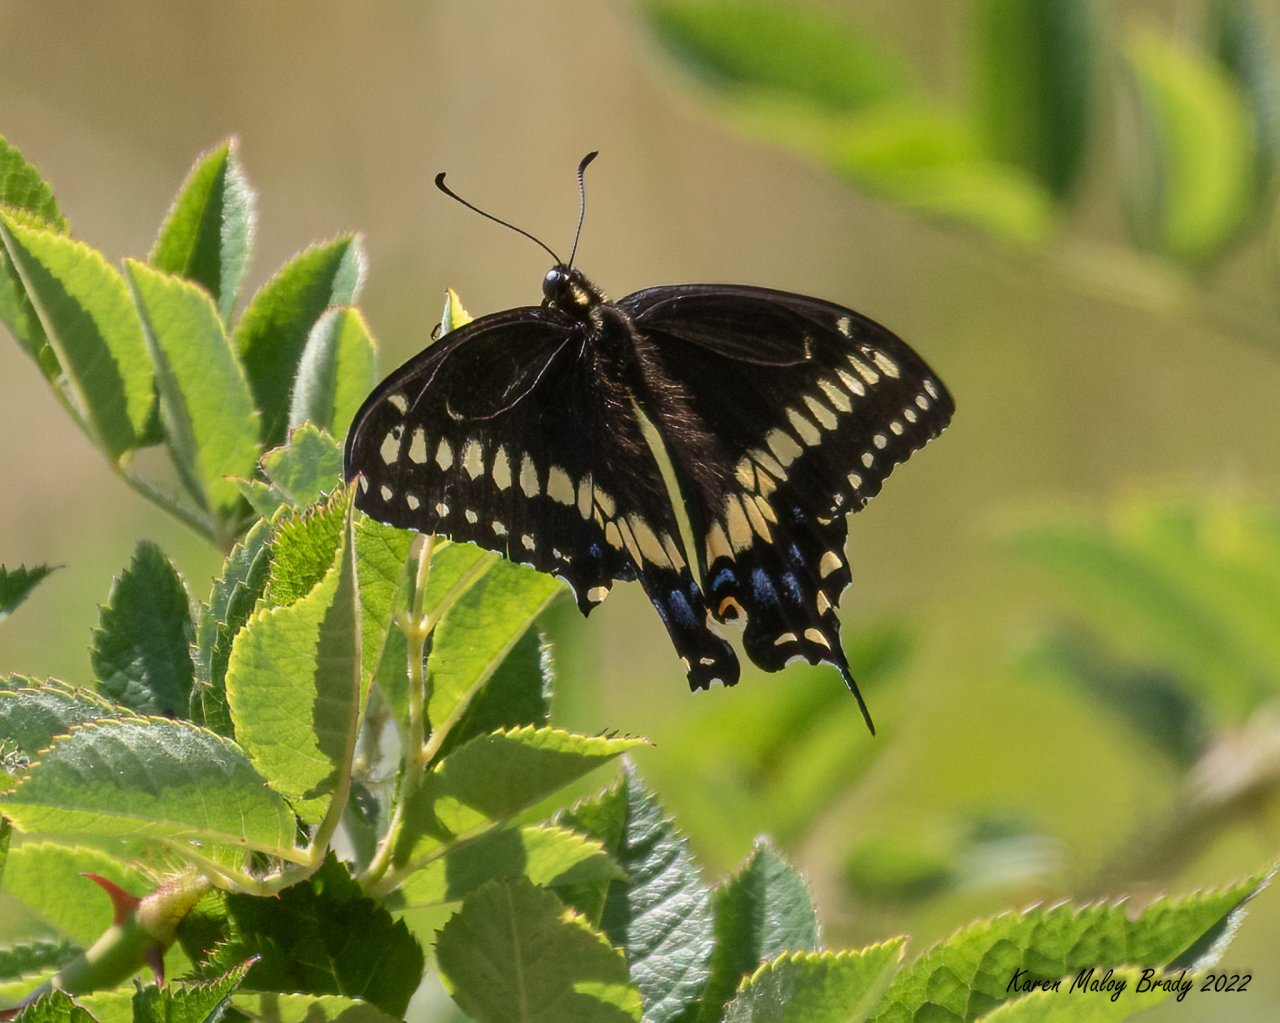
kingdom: Animalia
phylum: Arthropoda
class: Insecta
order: Lepidoptera
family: Papilionidae
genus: Papilio
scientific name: Papilio polyxenes
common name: Black Swallowtail
